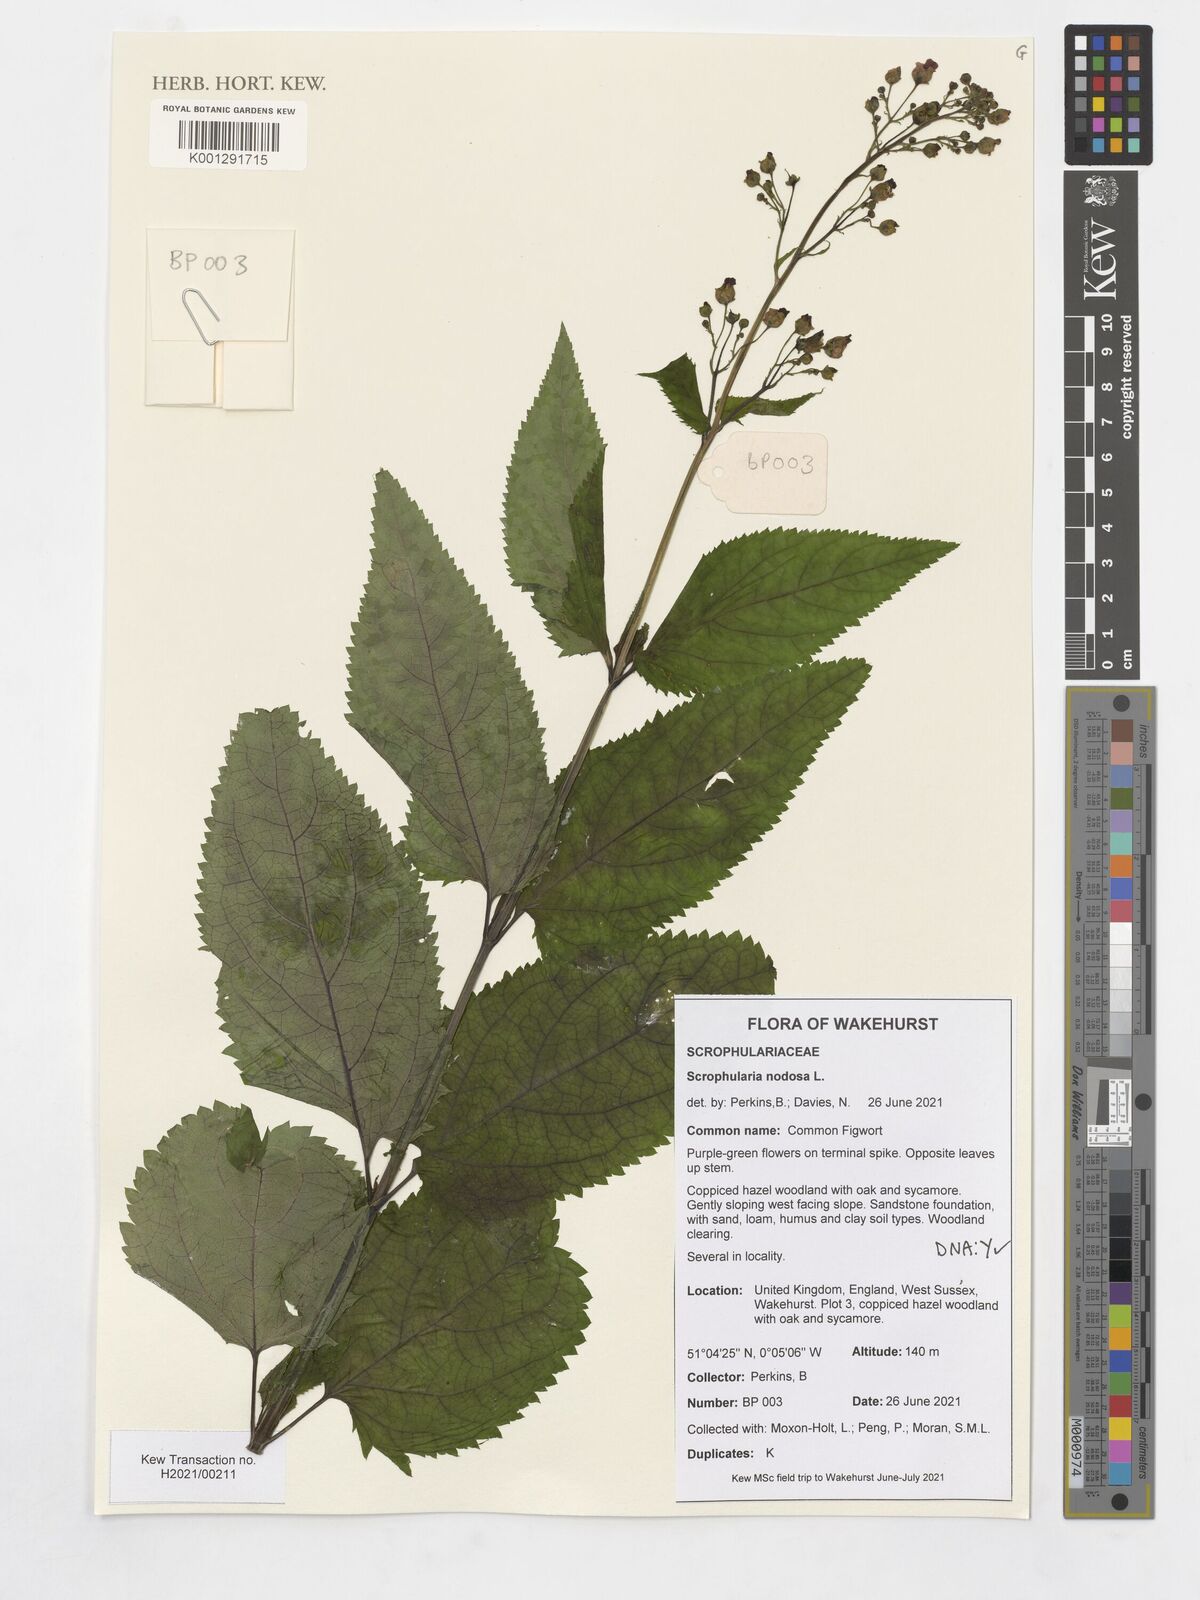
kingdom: Plantae
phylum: Tracheophyta
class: Magnoliopsida
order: Lamiales
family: Scrophulariaceae
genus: Scrophularia
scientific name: Scrophularia nodosa
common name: Common figwort
